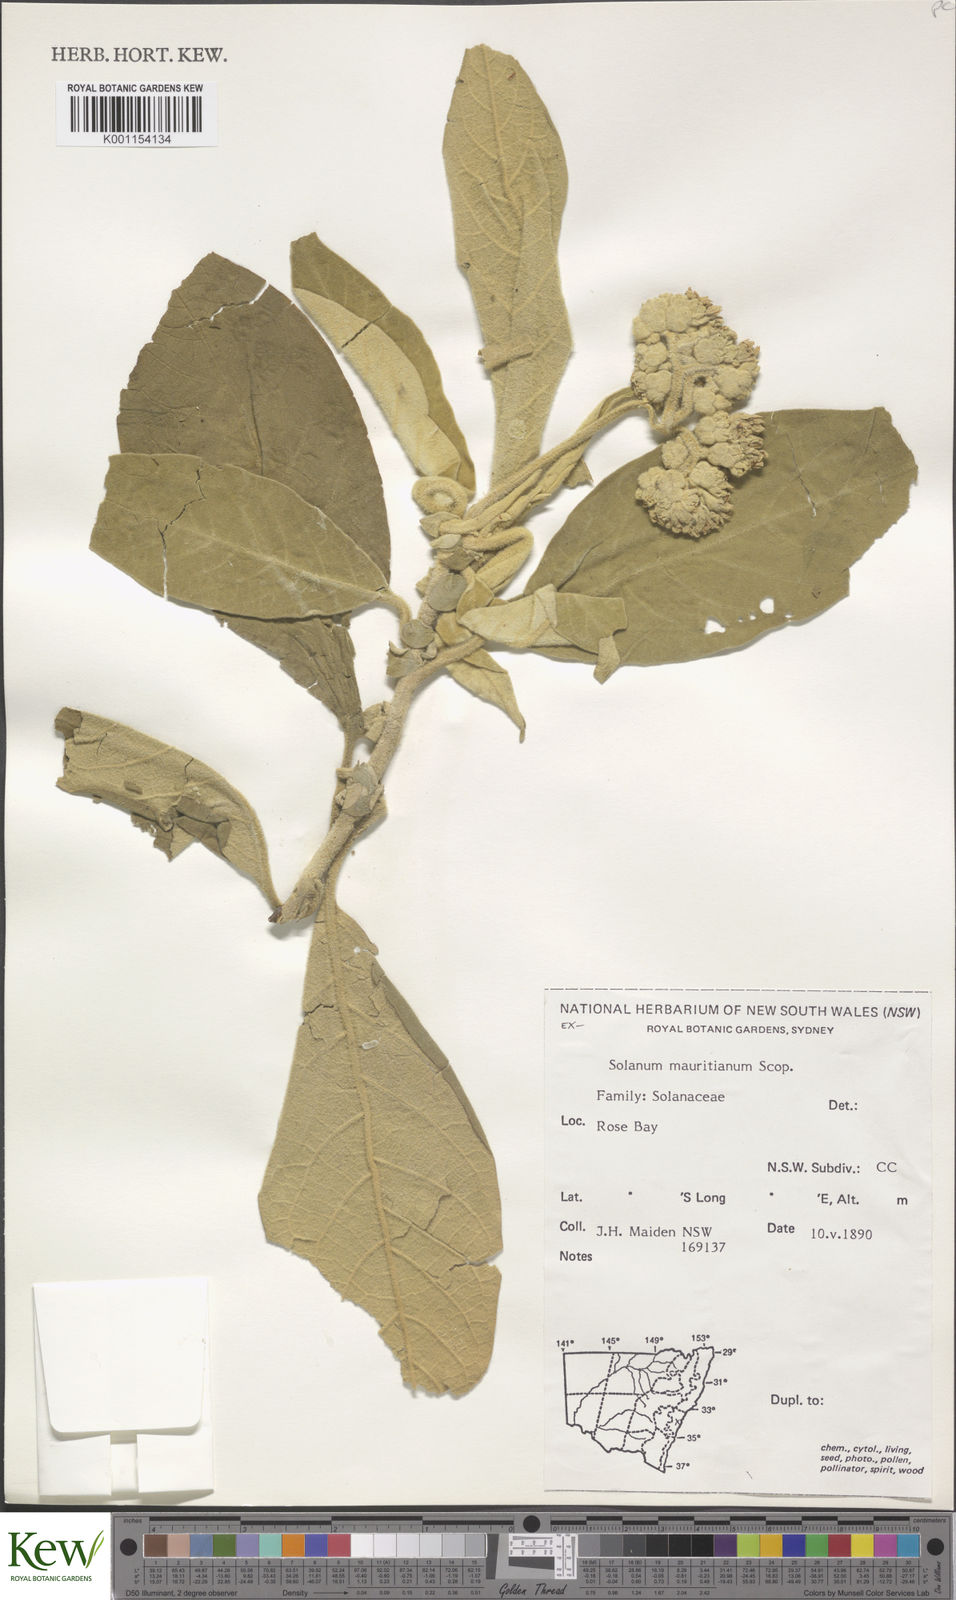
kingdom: Plantae
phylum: Tracheophyta
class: Magnoliopsida
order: Solanales
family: Solanaceae
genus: Solanum
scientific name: Solanum mauritianum
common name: Earleaf nightshade
